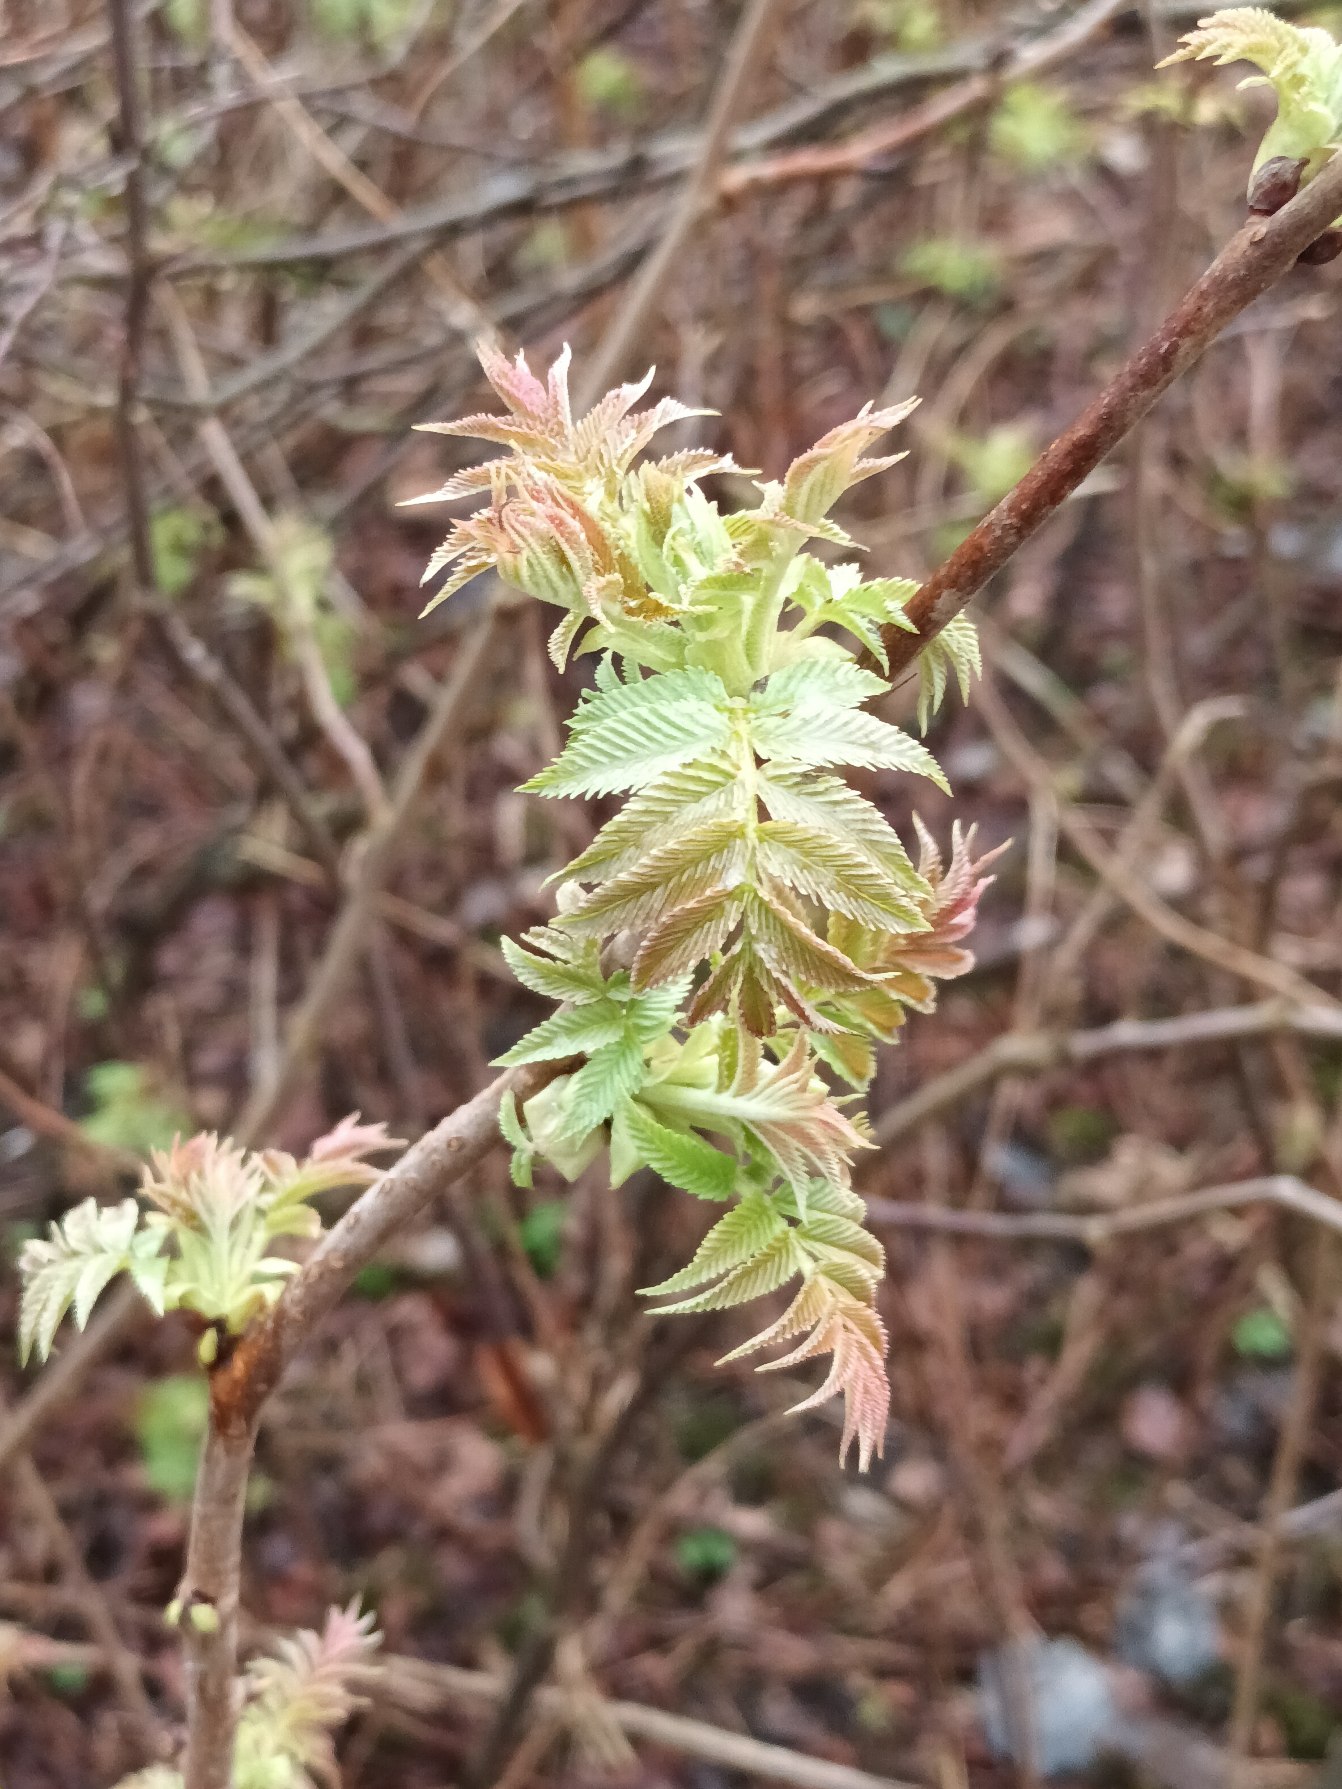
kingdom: Plantae
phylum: Tracheophyta
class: Magnoliopsida
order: Rosales
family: Rosaceae
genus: Sorbaria
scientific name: Sorbaria sorbifolia
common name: Tusindtop
